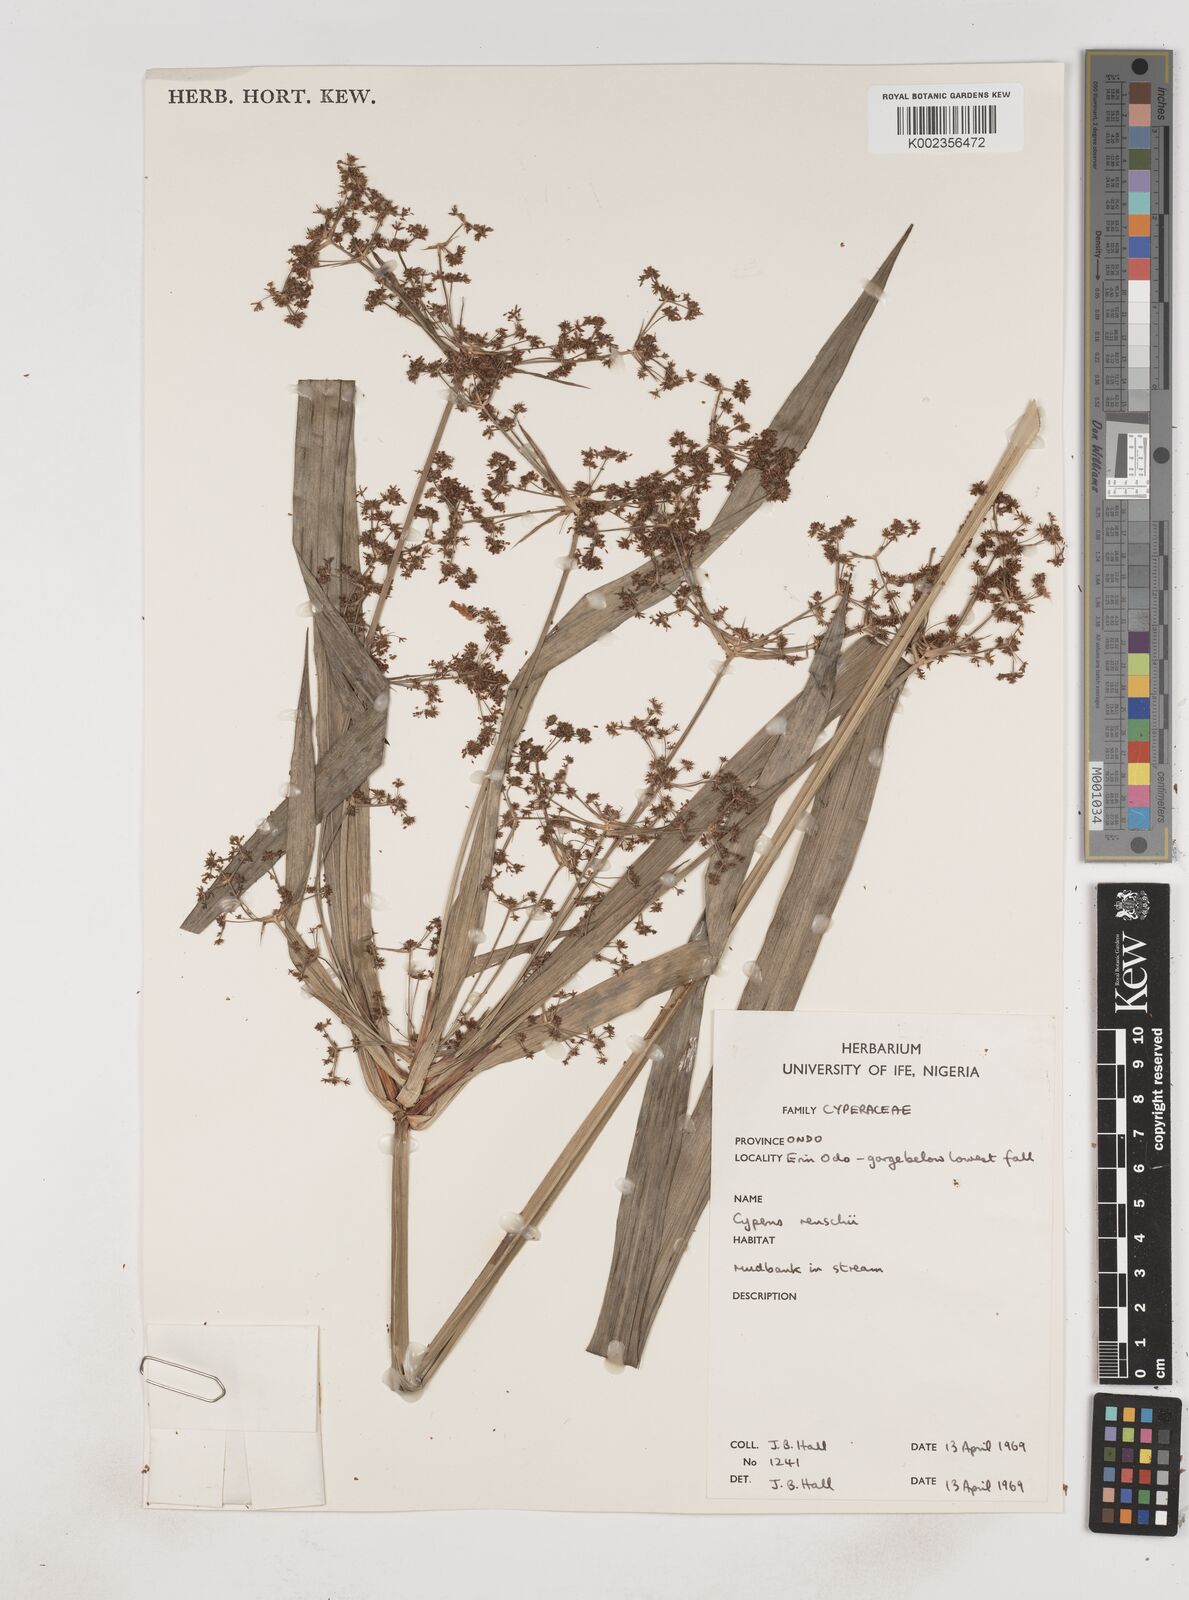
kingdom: Plantae
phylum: Tracheophyta
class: Liliopsida
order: Poales
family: Cyperaceae
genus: Cyperus
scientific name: Cyperus renschii
